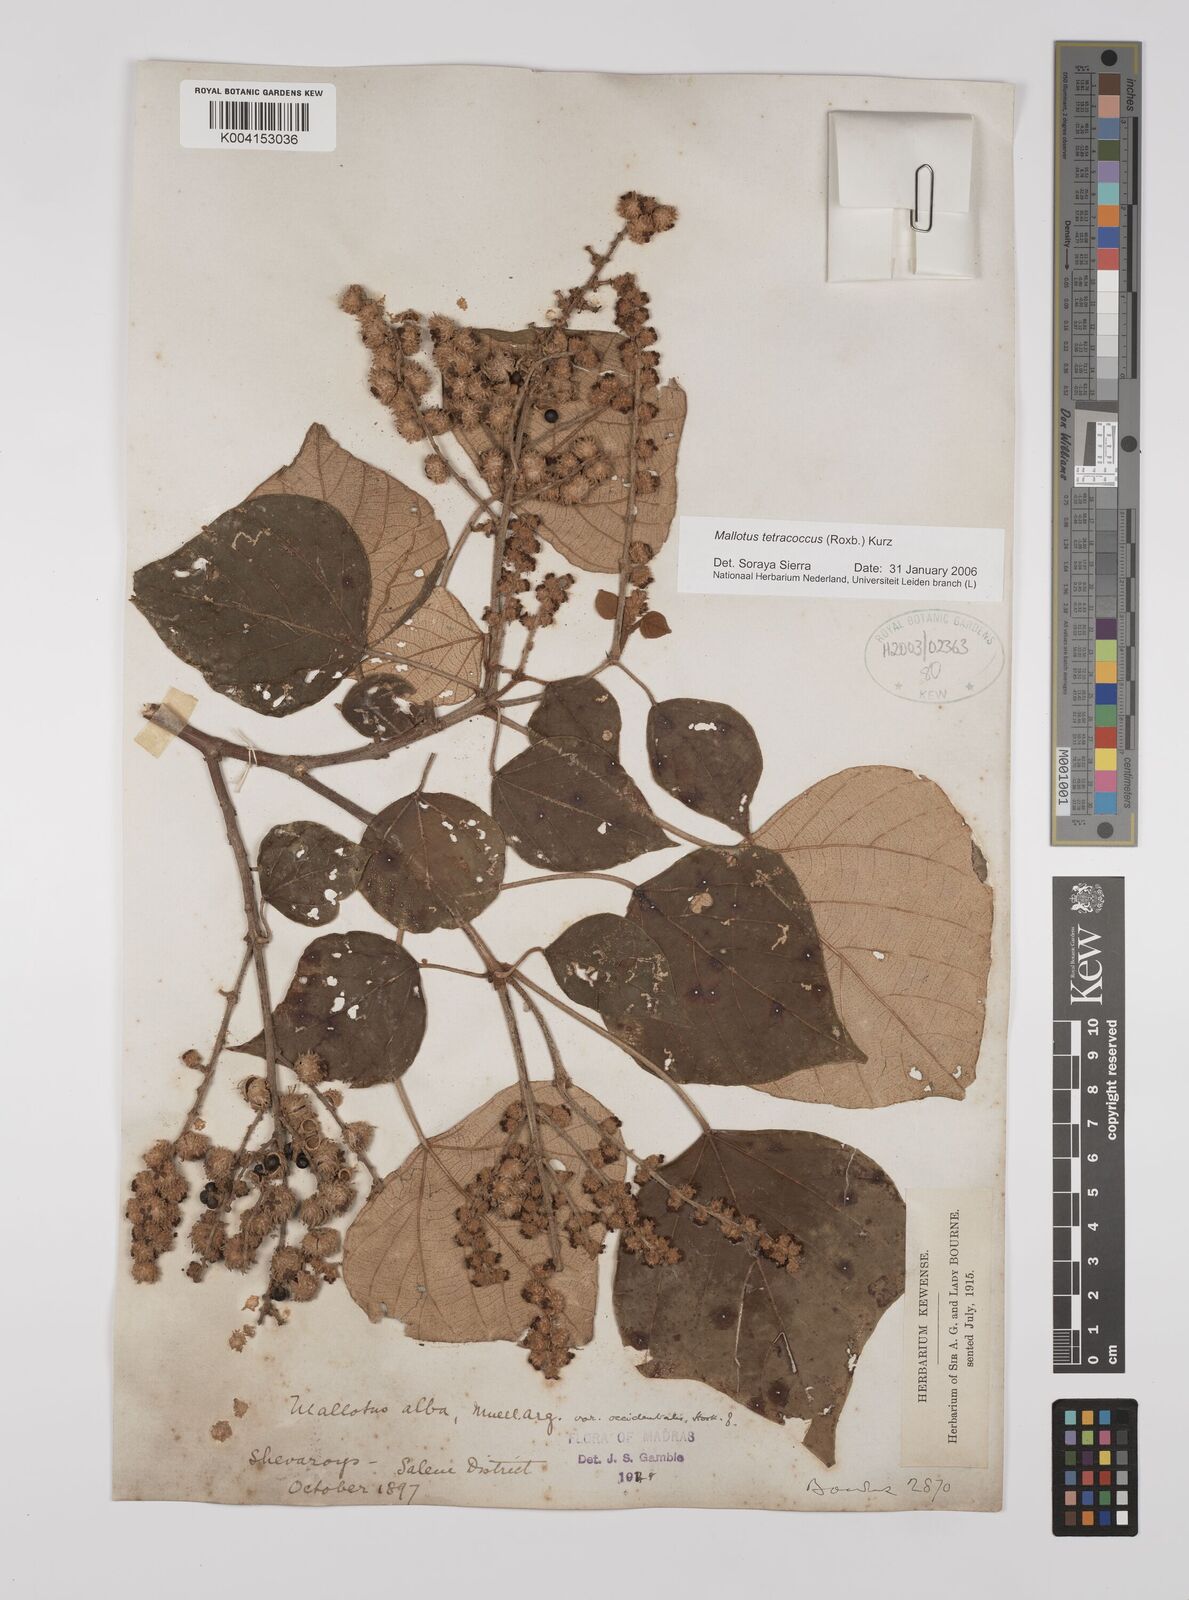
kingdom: Plantae
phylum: Tracheophyta
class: Magnoliopsida
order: Malpighiales
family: Euphorbiaceae
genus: Mallotus
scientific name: Mallotus tetracoccus
